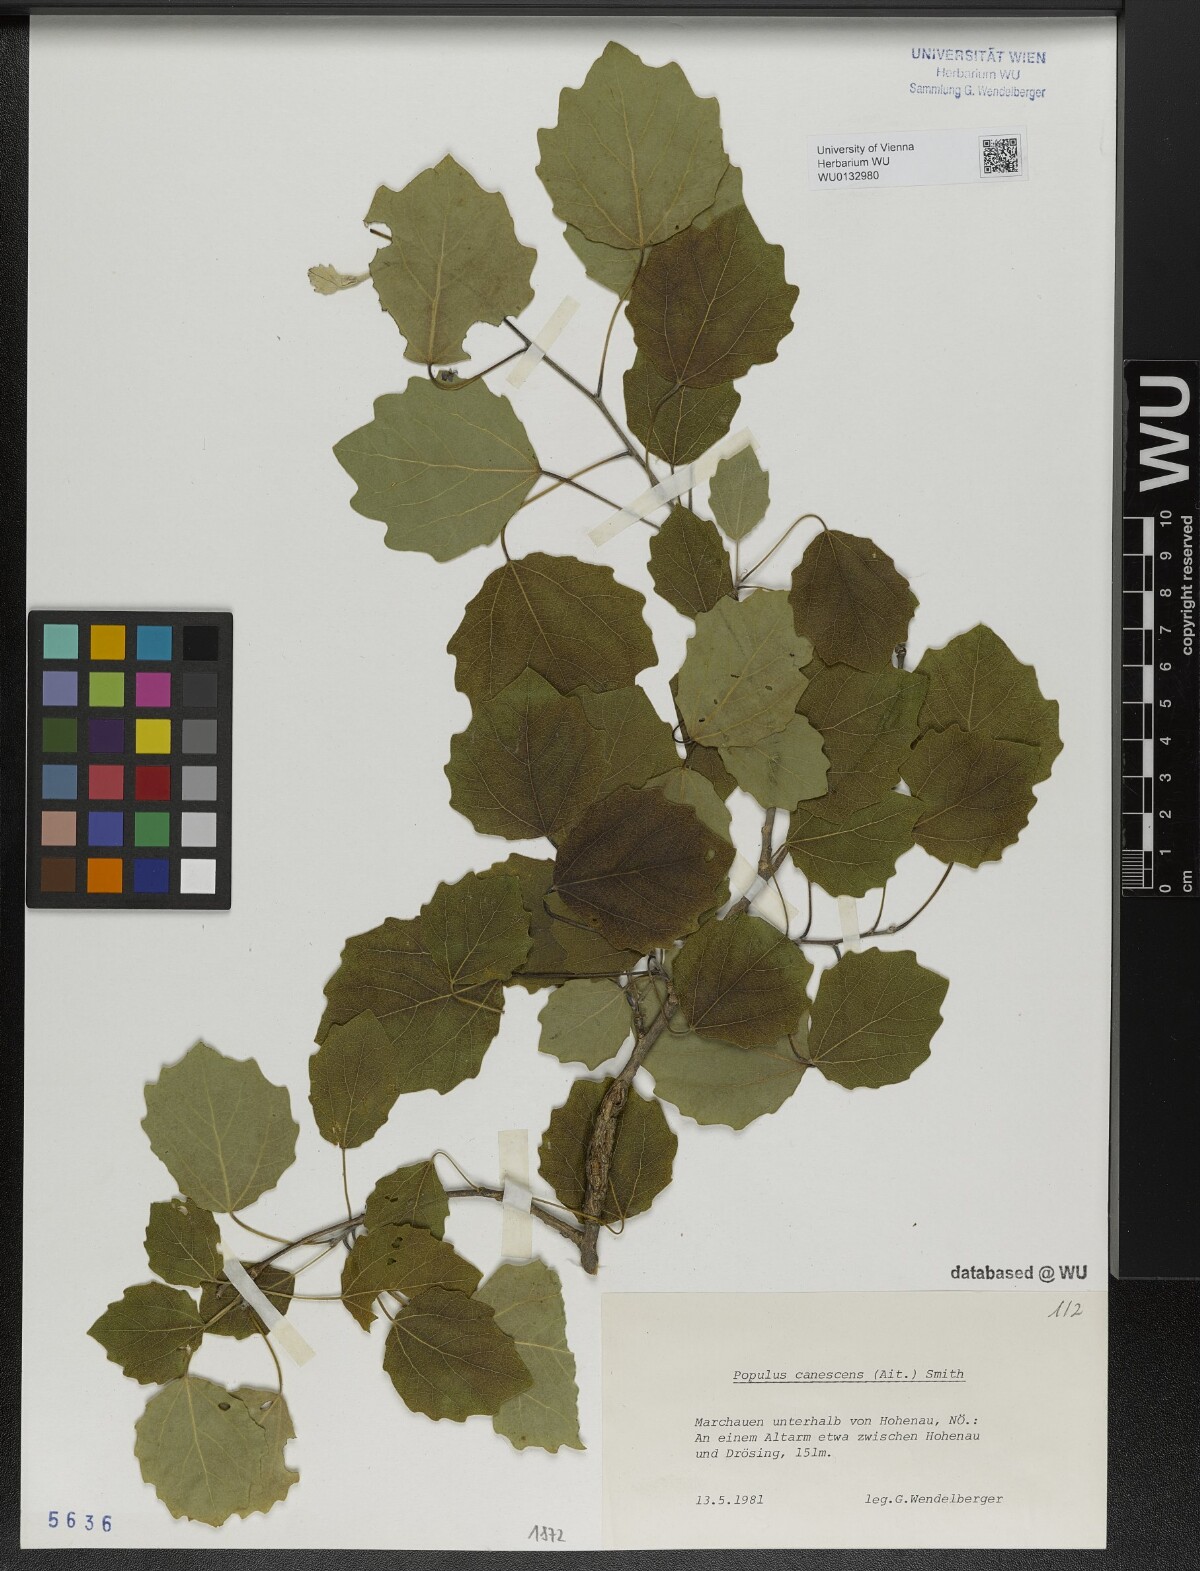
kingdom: Plantae
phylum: Tracheophyta
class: Magnoliopsida
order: Malpighiales
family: Salicaceae
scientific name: Salicaceae
